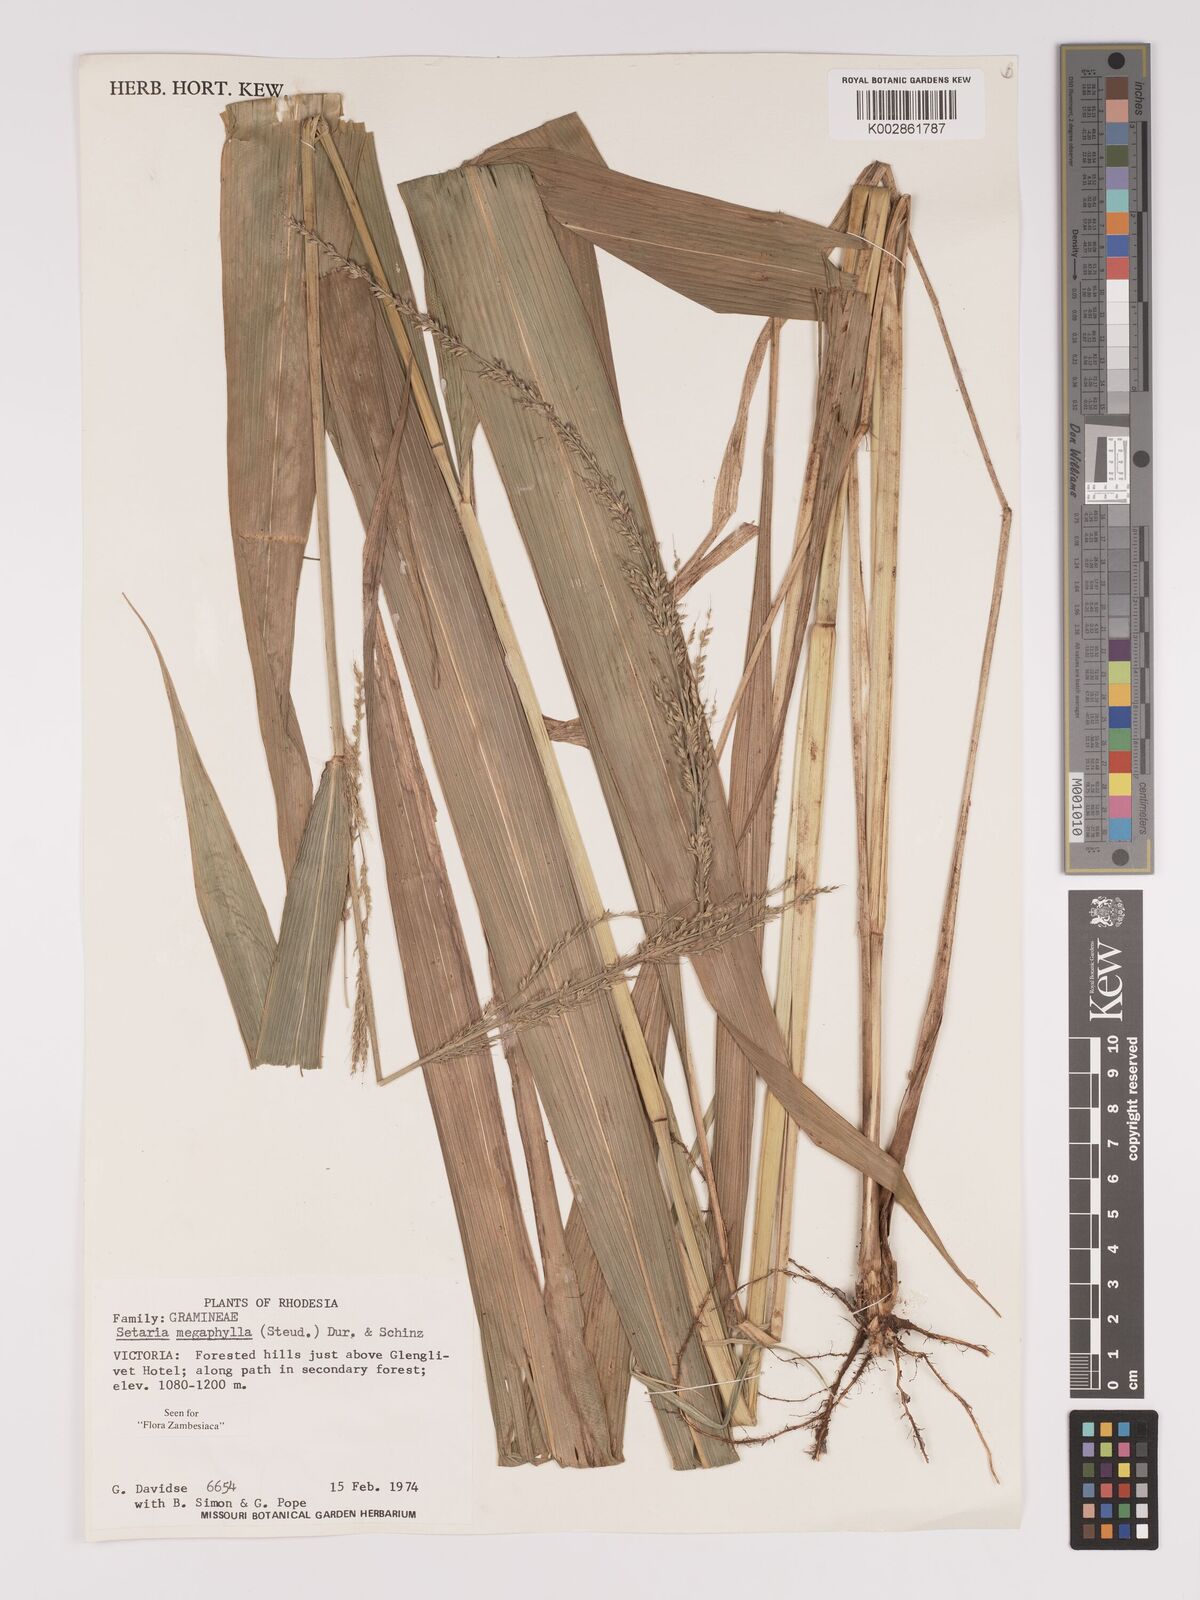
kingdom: Plantae
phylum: Tracheophyta
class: Liliopsida
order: Poales
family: Poaceae
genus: Setaria
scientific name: Setaria megaphylla
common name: Bigleaf bristlegrass
